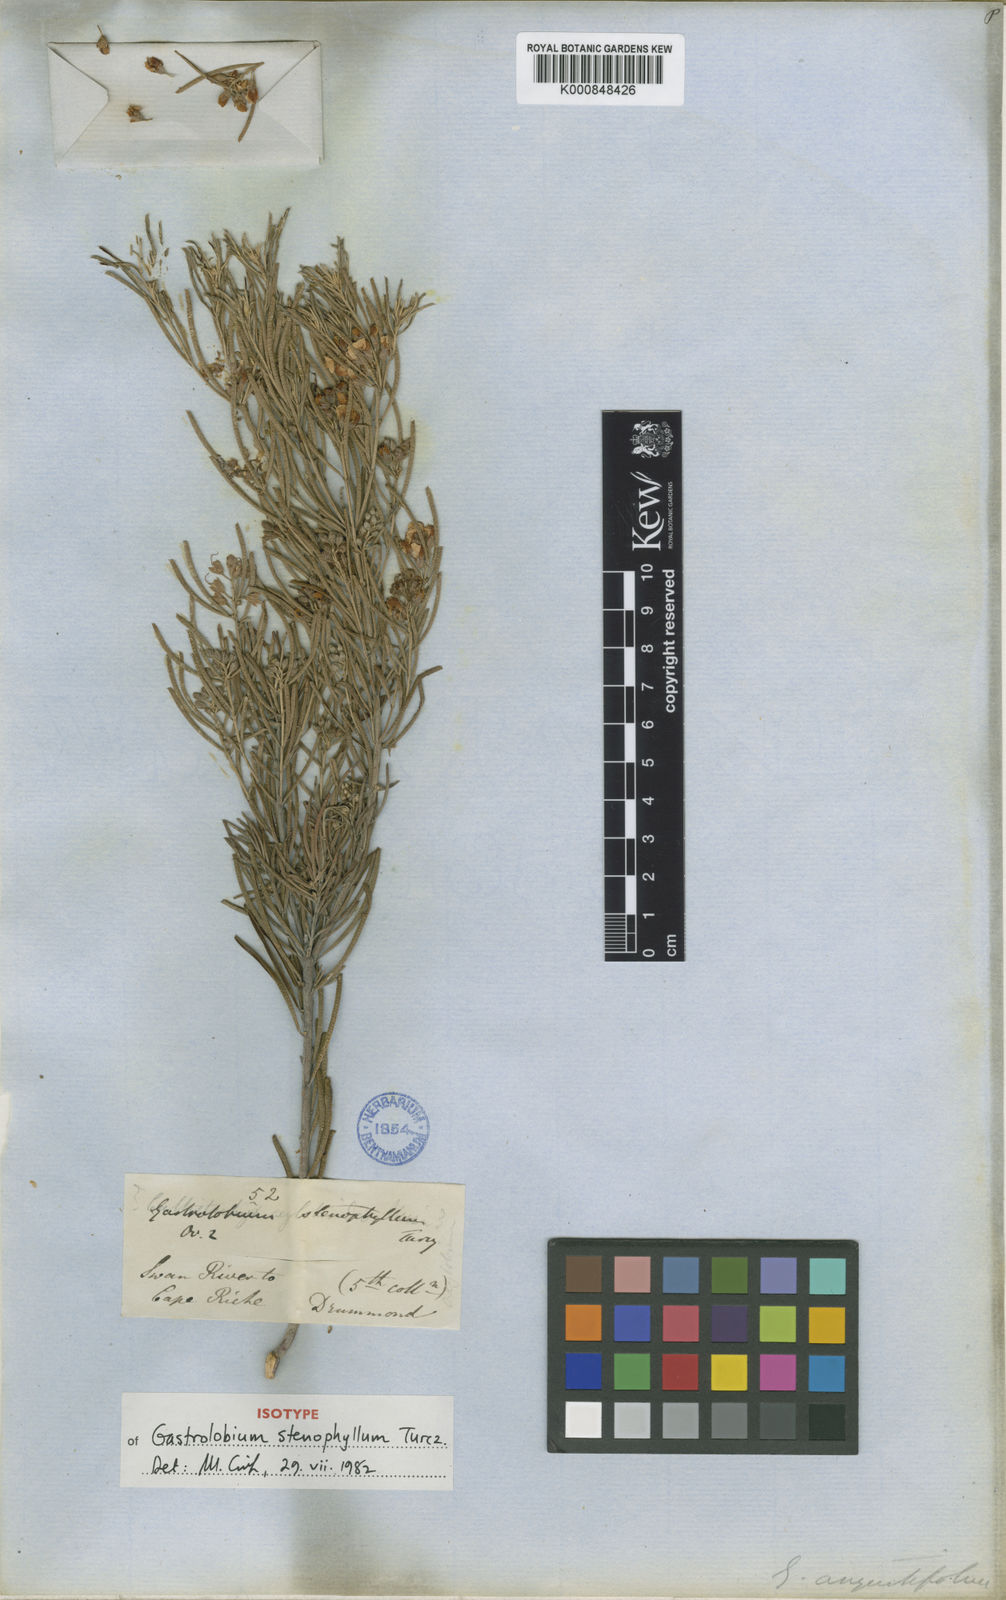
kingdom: Plantae
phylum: Tracheophyta
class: Magnoliopsida
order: Fabales
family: Fabaceae
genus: Gastrolobium
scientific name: Gastrolobium stenophyllum
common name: Narrow-leaf poison
